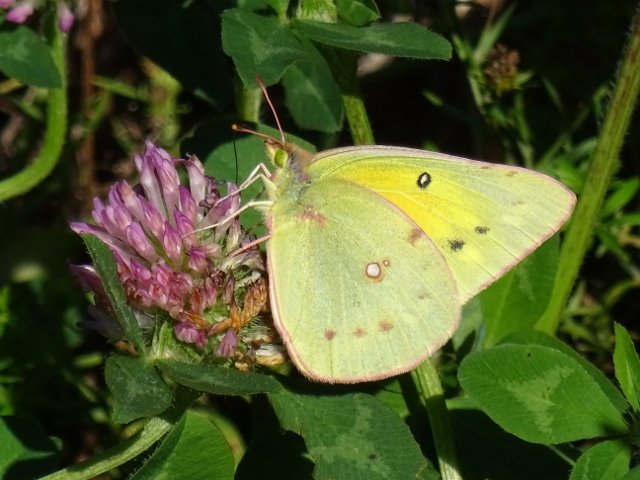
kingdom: Animalia
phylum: Arthropoda
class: Insecta
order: Lepidoptera
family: Pieridae
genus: Colias
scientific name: Colias philodice
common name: Clouded Sulphur
